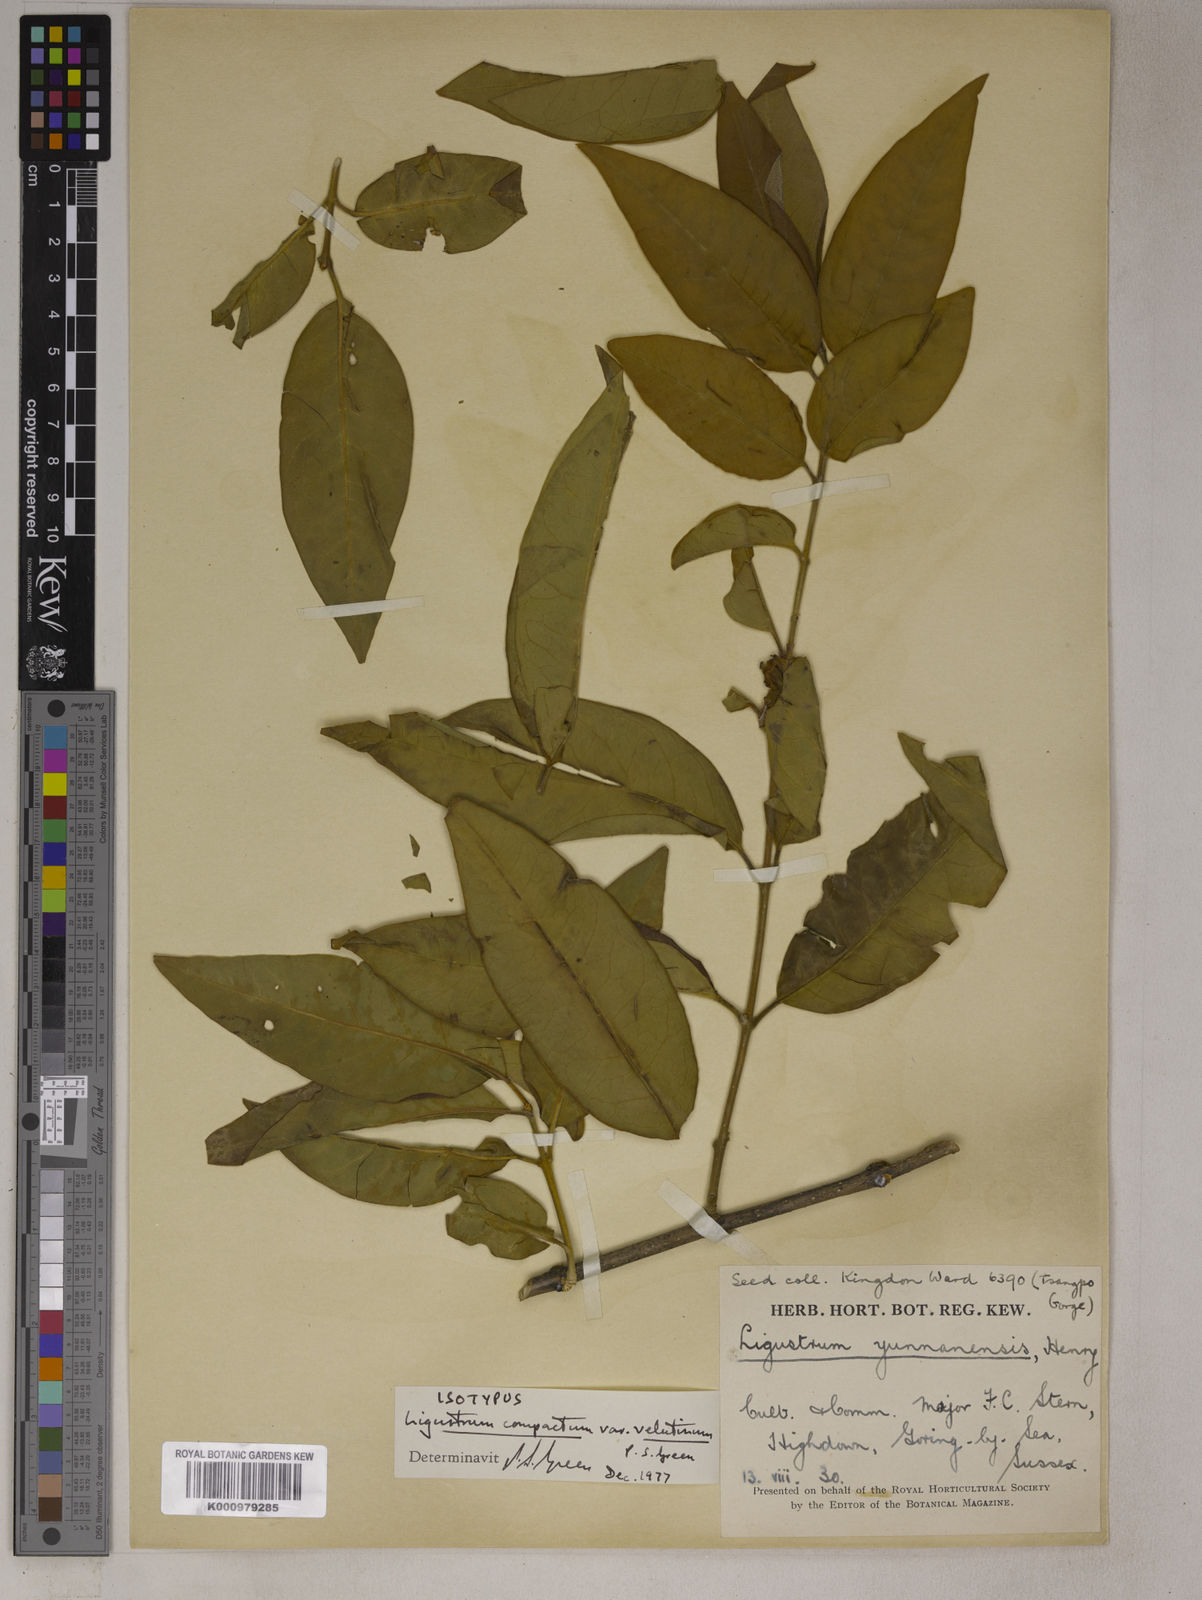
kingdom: Plantae
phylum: Tracheophyta
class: Magnoliopsida
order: Lamiales
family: Oleaceae
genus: Ligustrum
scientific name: Ligustrum compactum
